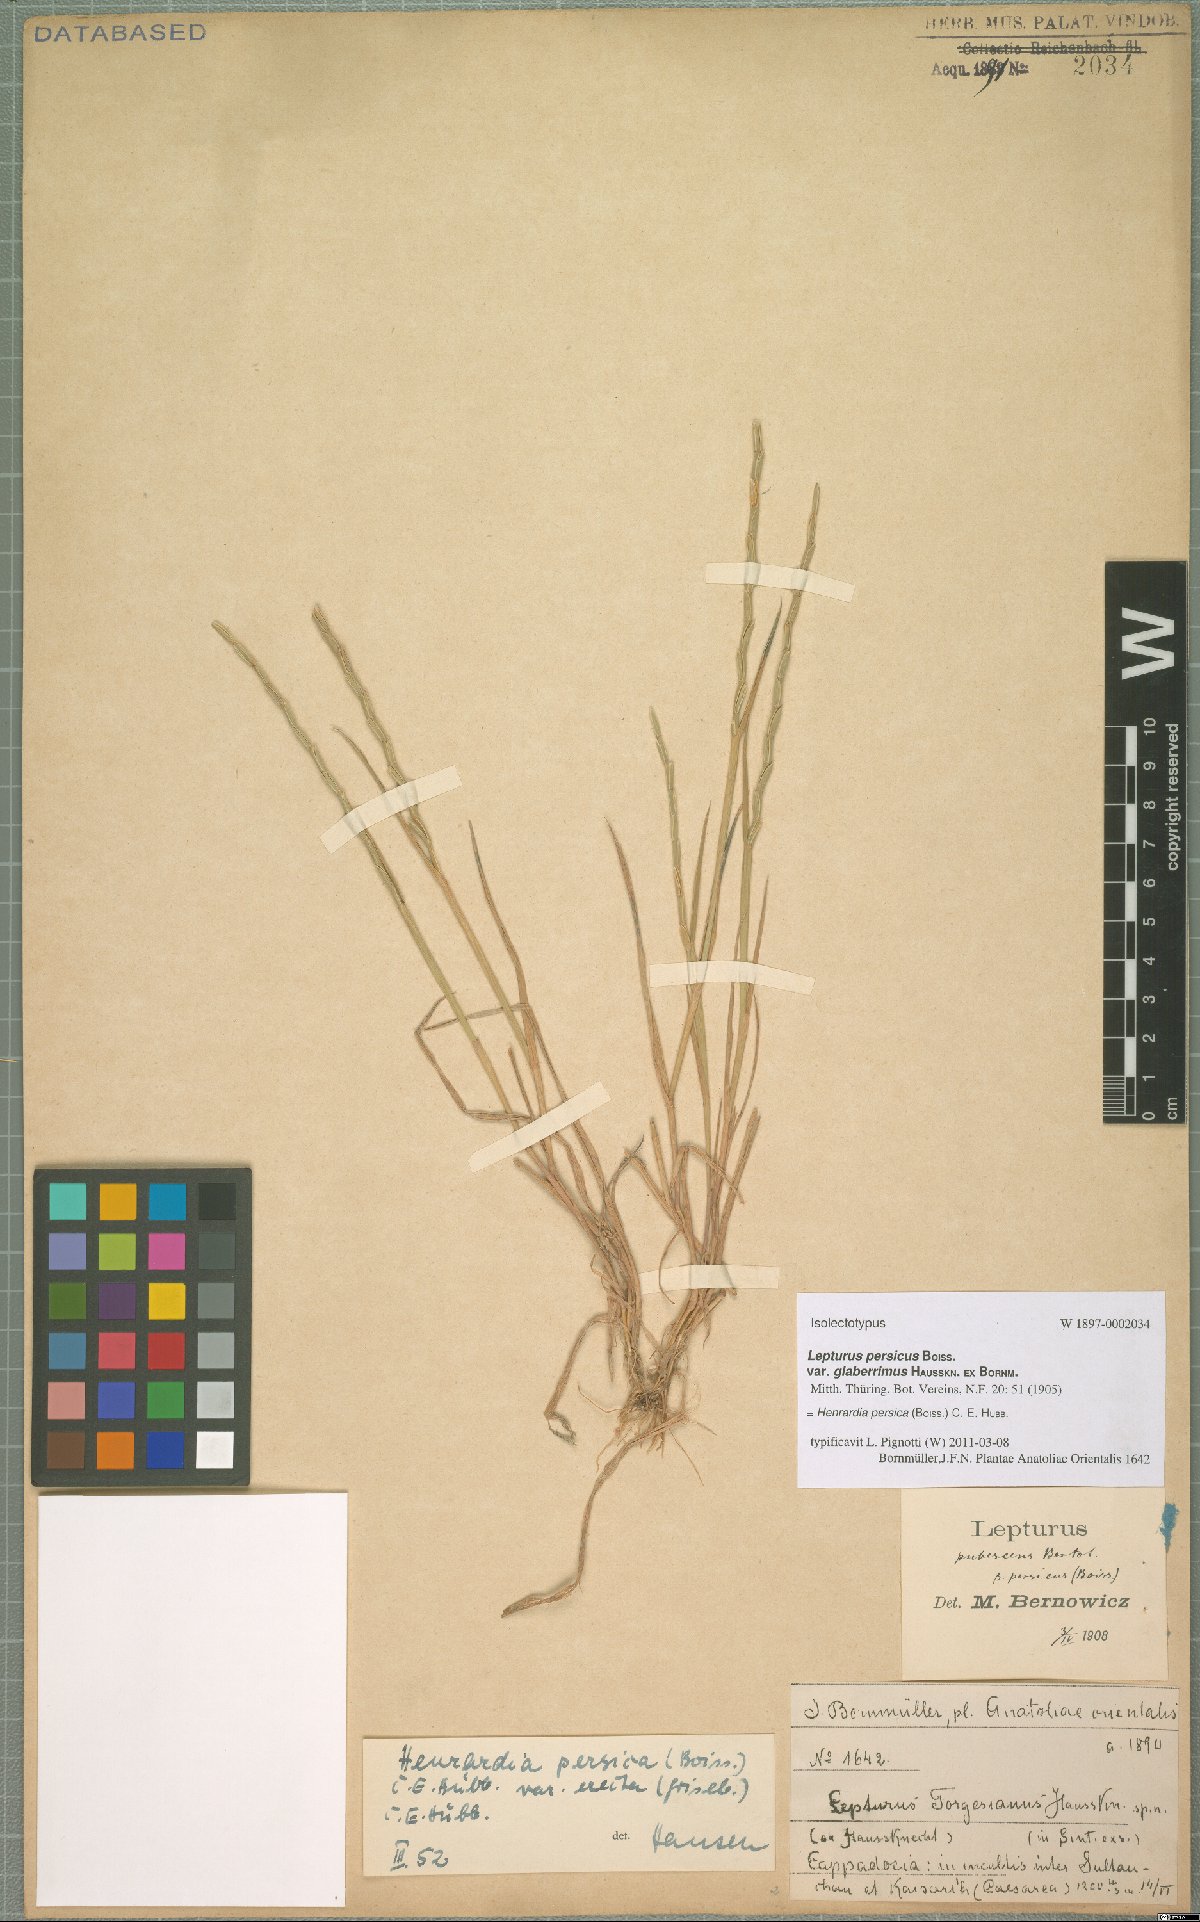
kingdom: Plantae
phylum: Tracheophyta
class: Liliopsida
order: Poales
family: Poaceae
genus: Henrardia
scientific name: Henrardia persica
